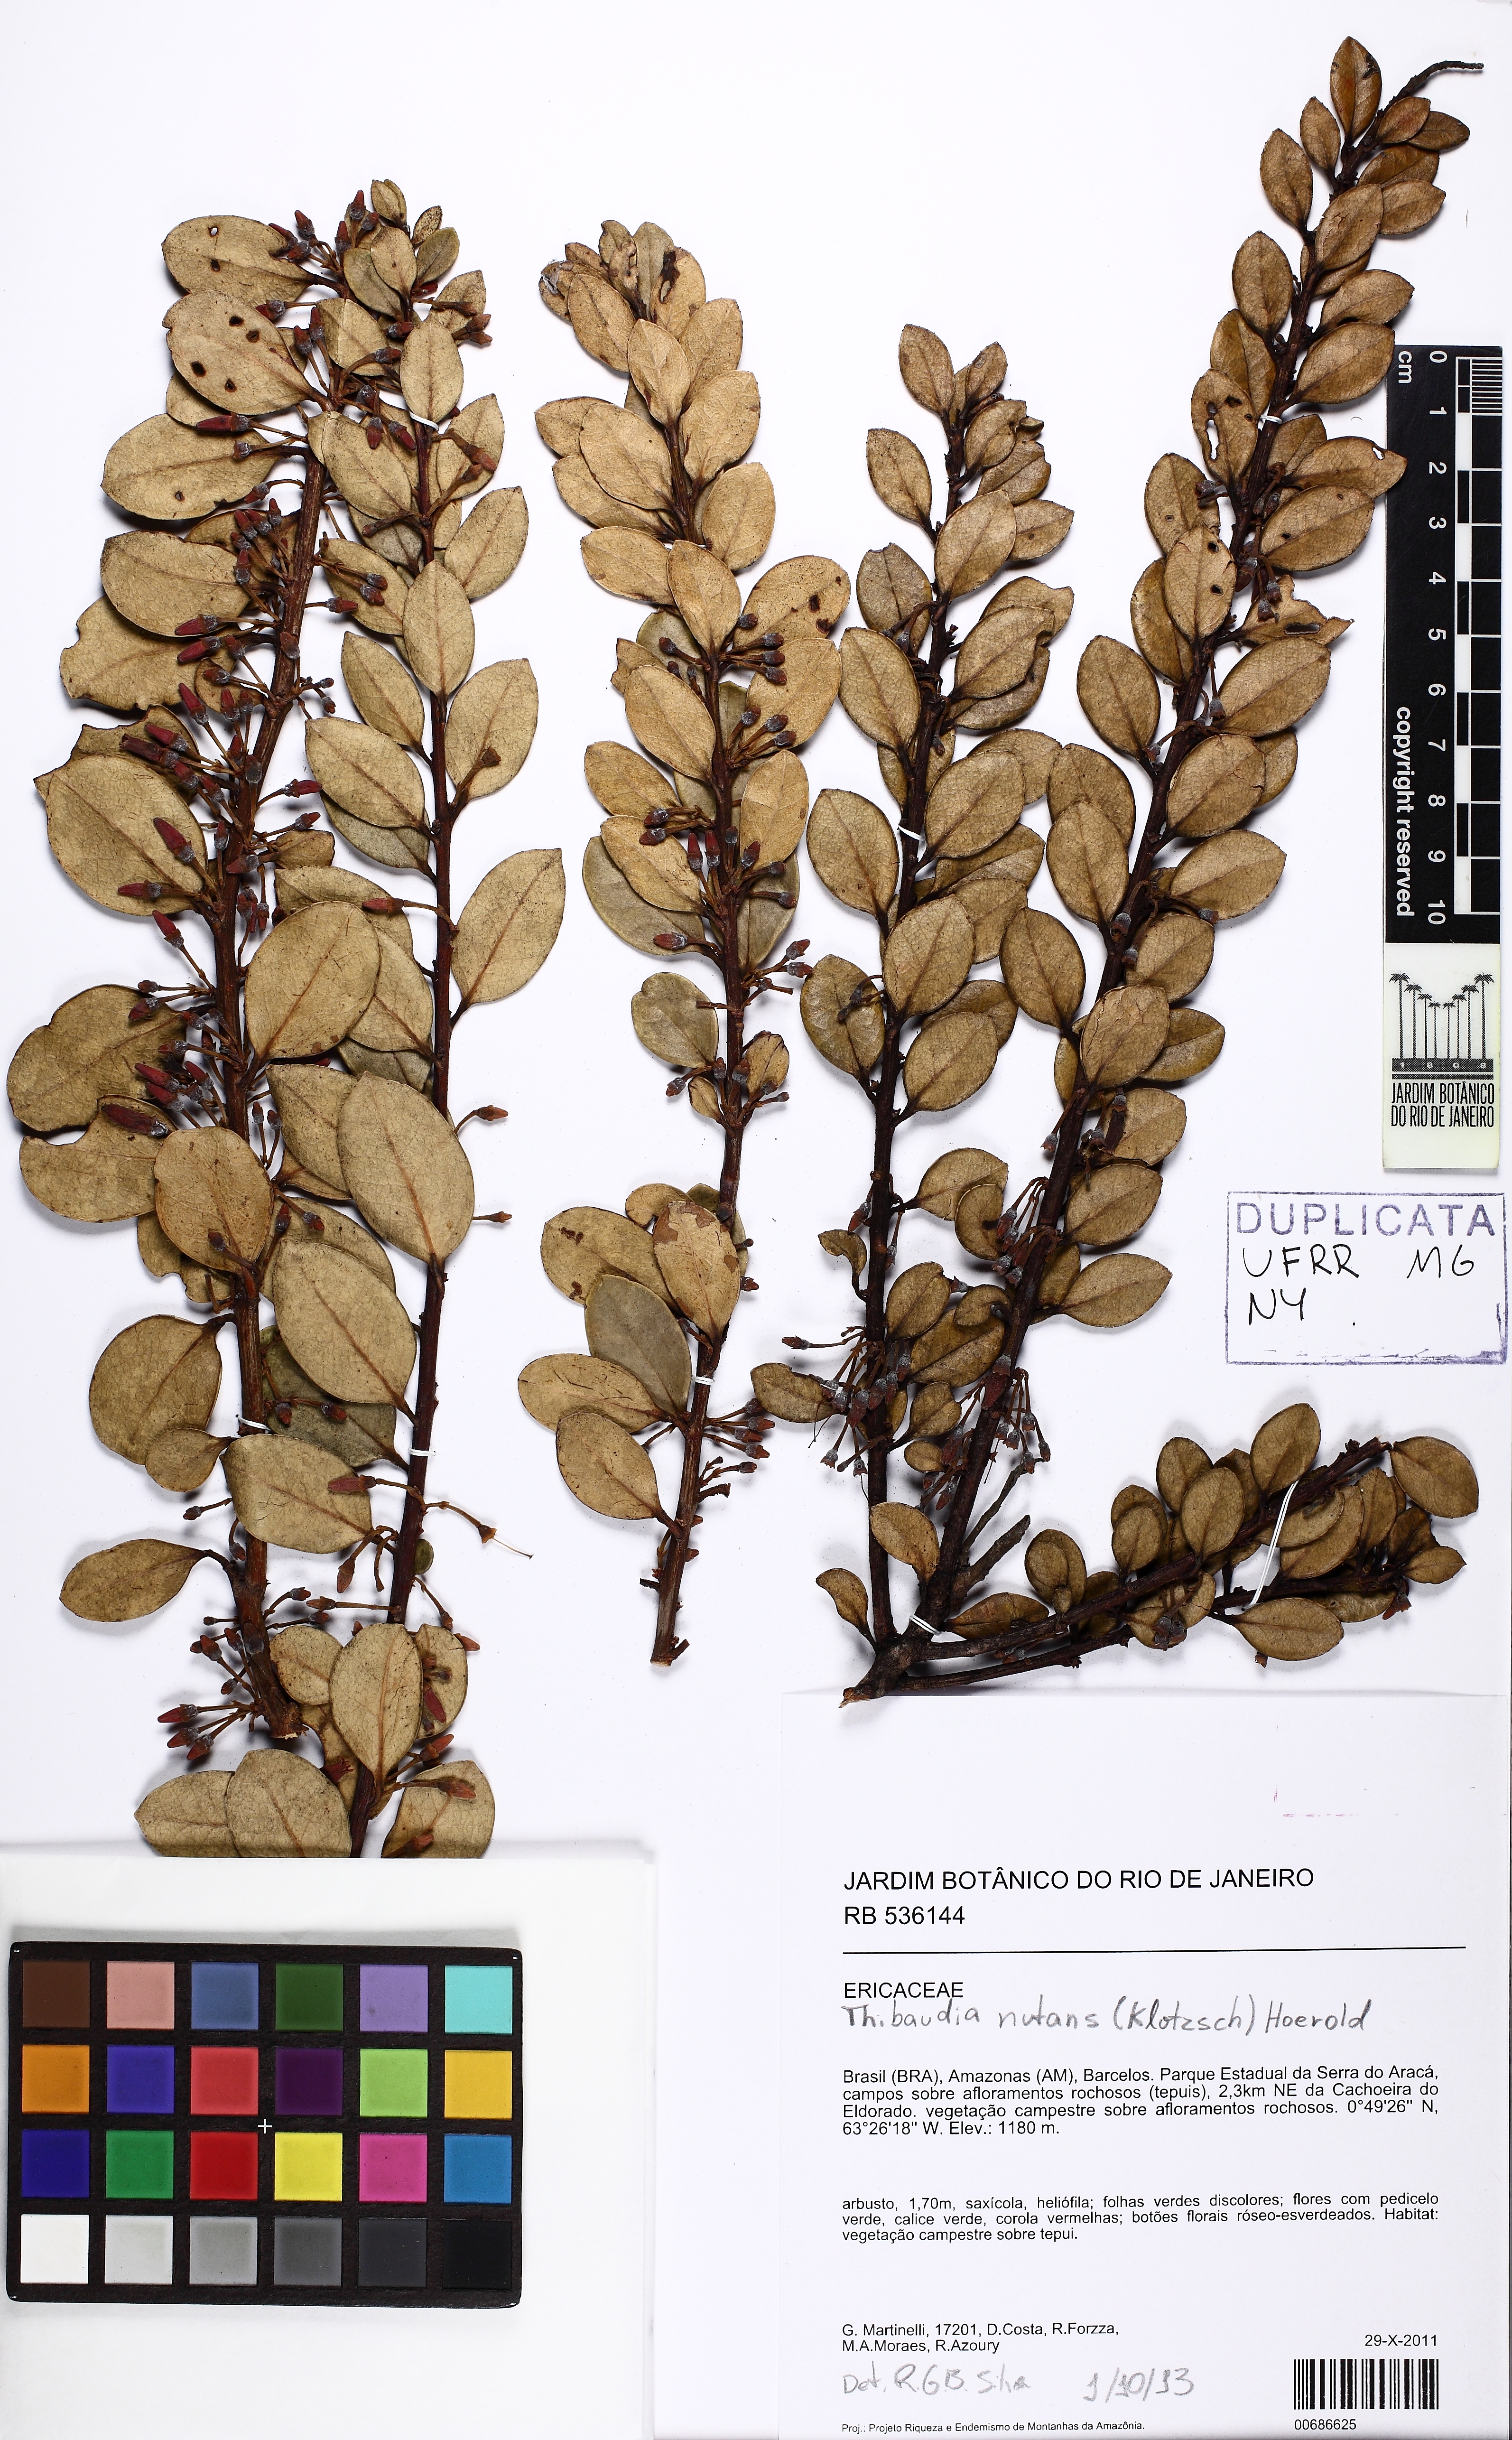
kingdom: Plantae
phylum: Tracheophyta
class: Magnoliopsida
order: Ericales
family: Ericaceae
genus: Psammisia
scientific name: Psammisia coarctata
